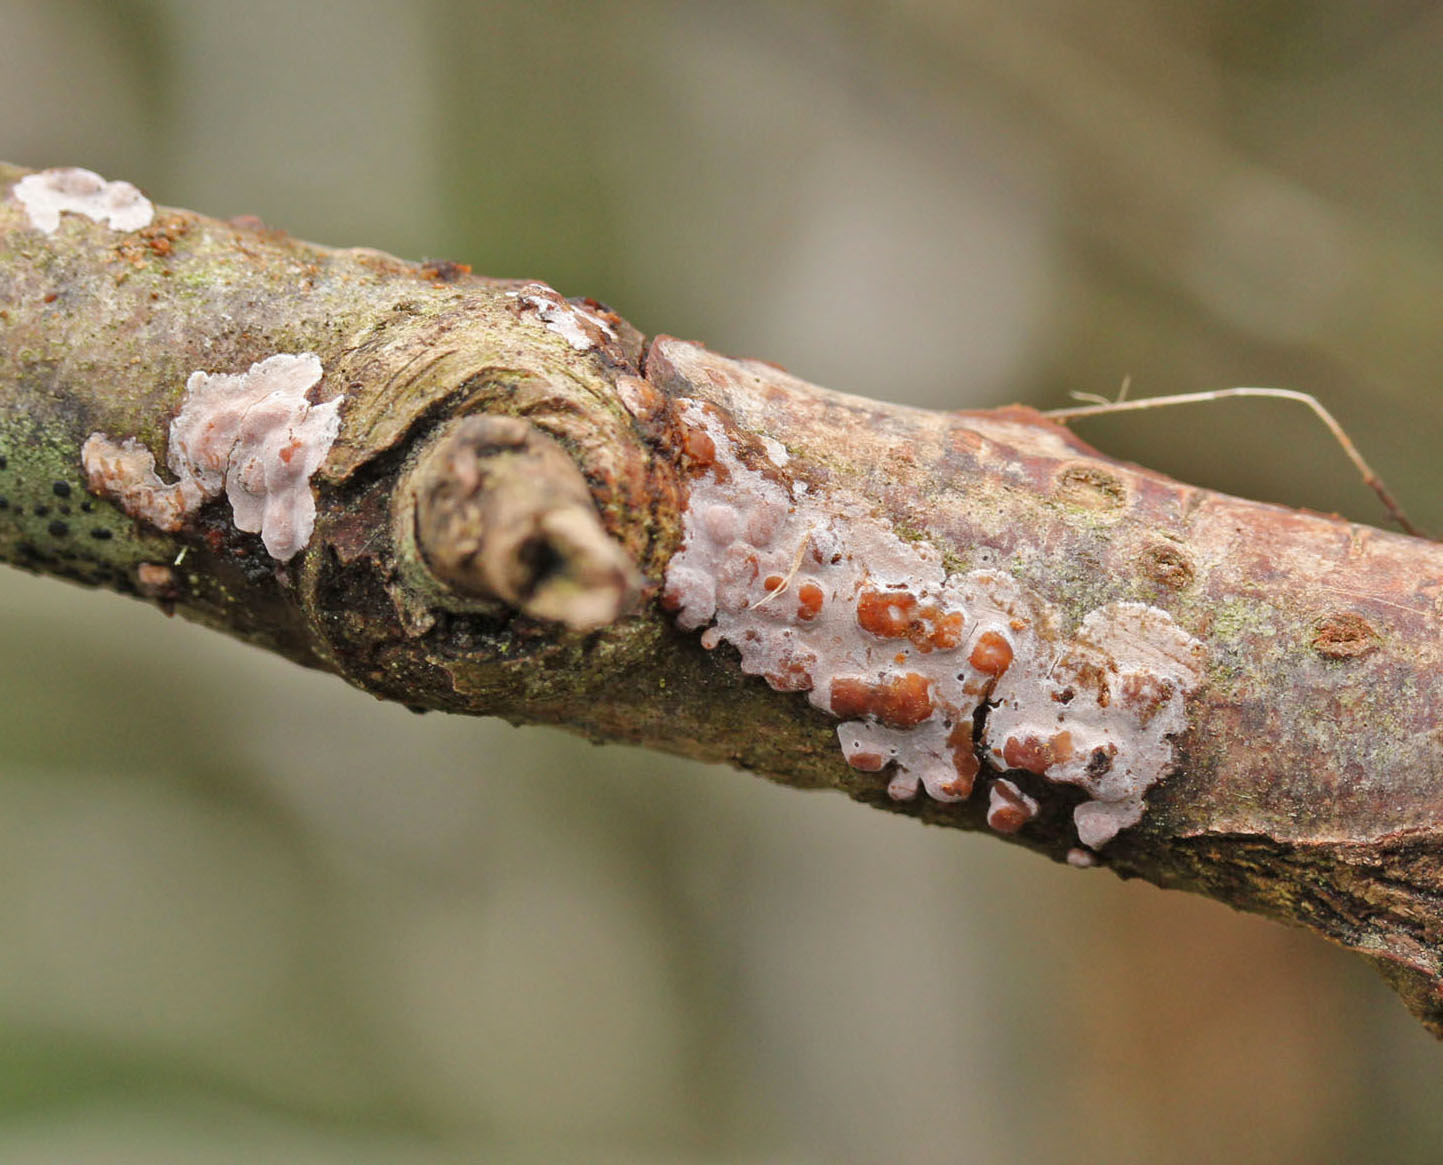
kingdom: Fungi
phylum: Basidiomycota
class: Agaricomycetes
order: Russulales
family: Peniophoraceae
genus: Peniophora
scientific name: Peniophora polygonia
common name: polygon-voksskind
